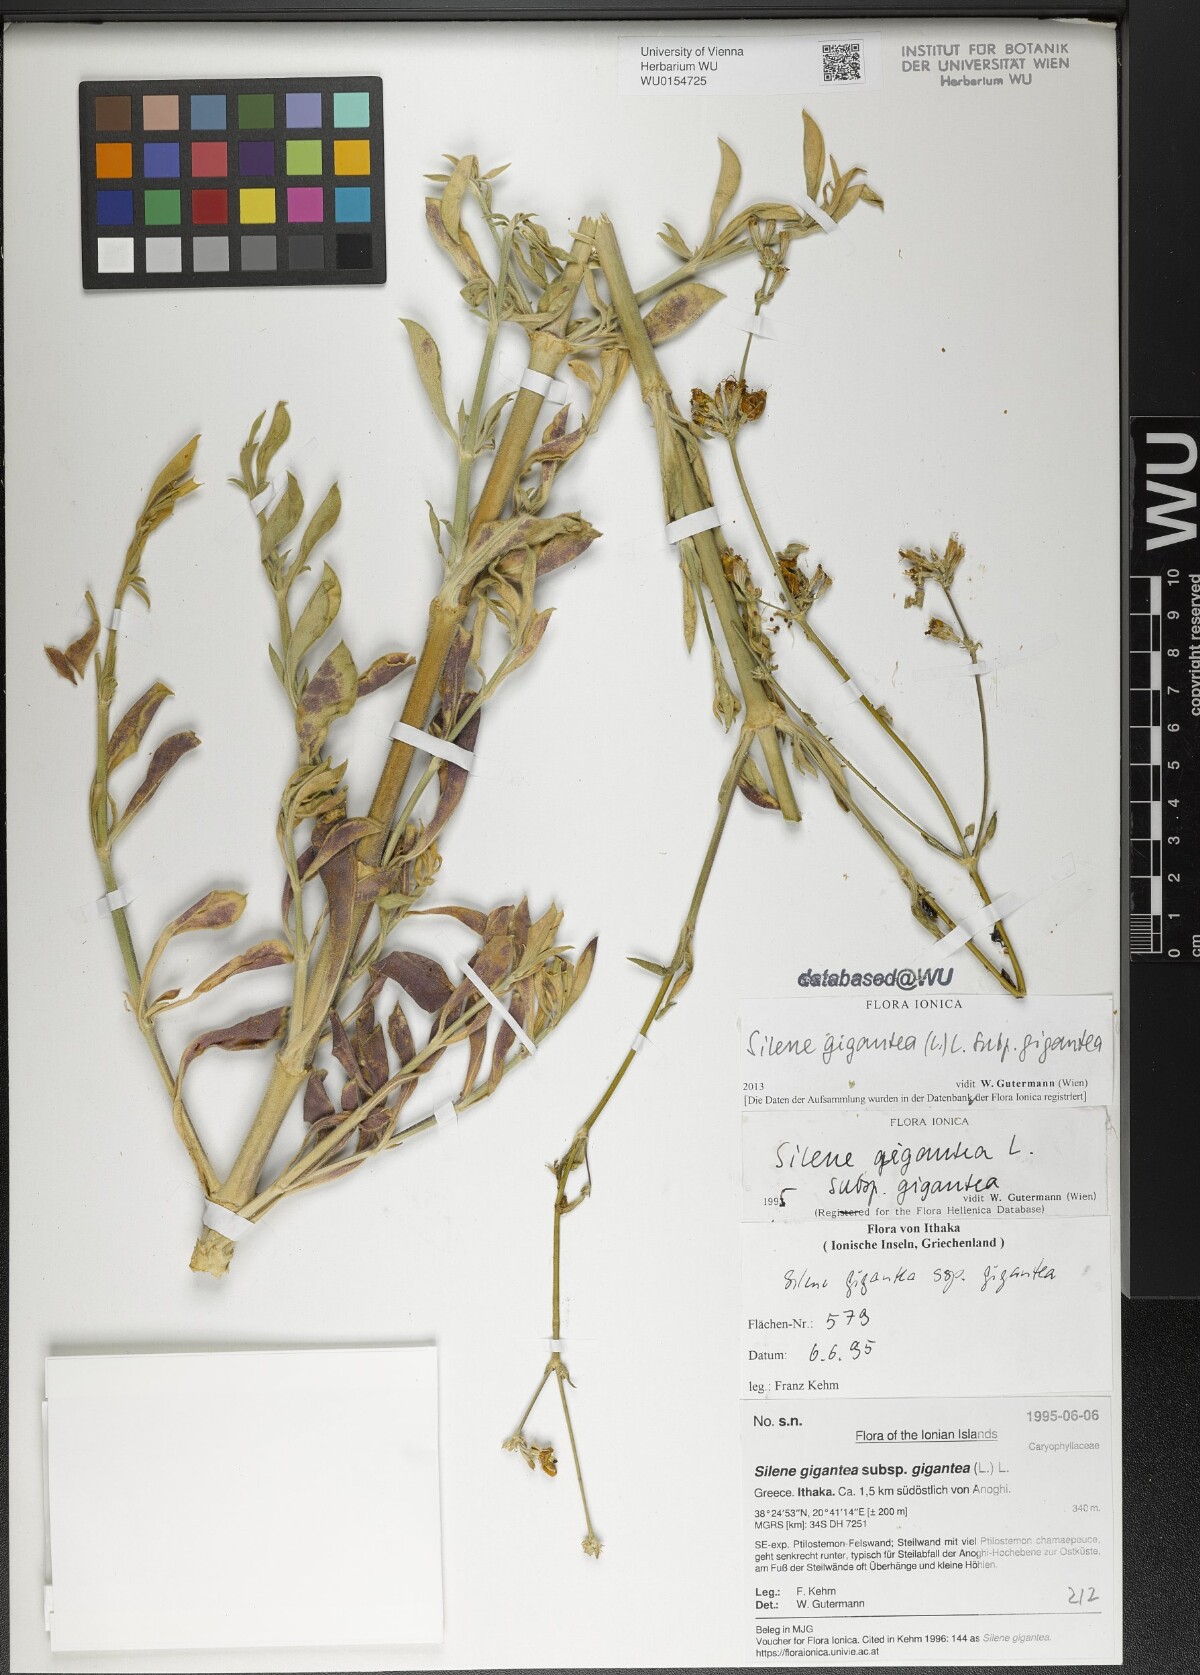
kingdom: Plantae
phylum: Tracheophyta
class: Magnoliopsida
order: Caryophyllales
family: Caryophyllaceae
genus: Silene
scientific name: Silene gigantea
